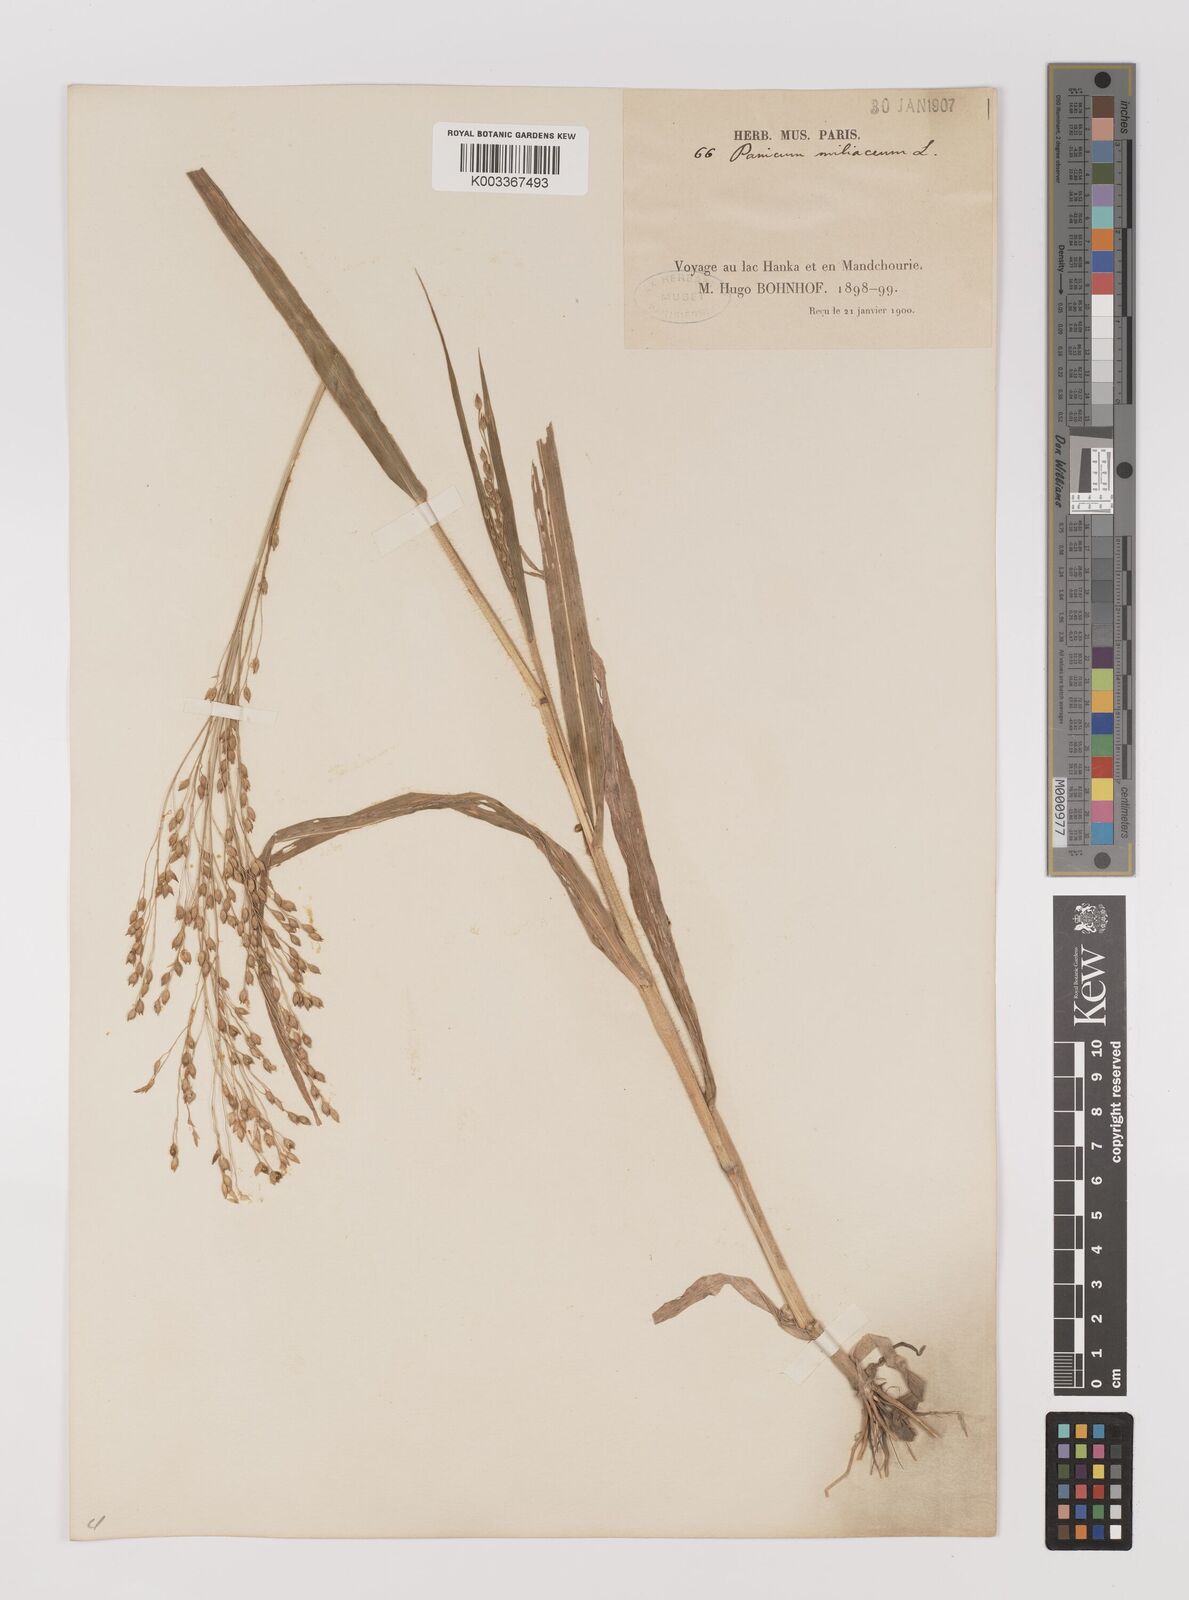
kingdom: Plantae
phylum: Tracheophyta
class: Liliopsida
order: Poales
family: Poaceae
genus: Panicum
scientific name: Panicum miliaceum
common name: Common millet
